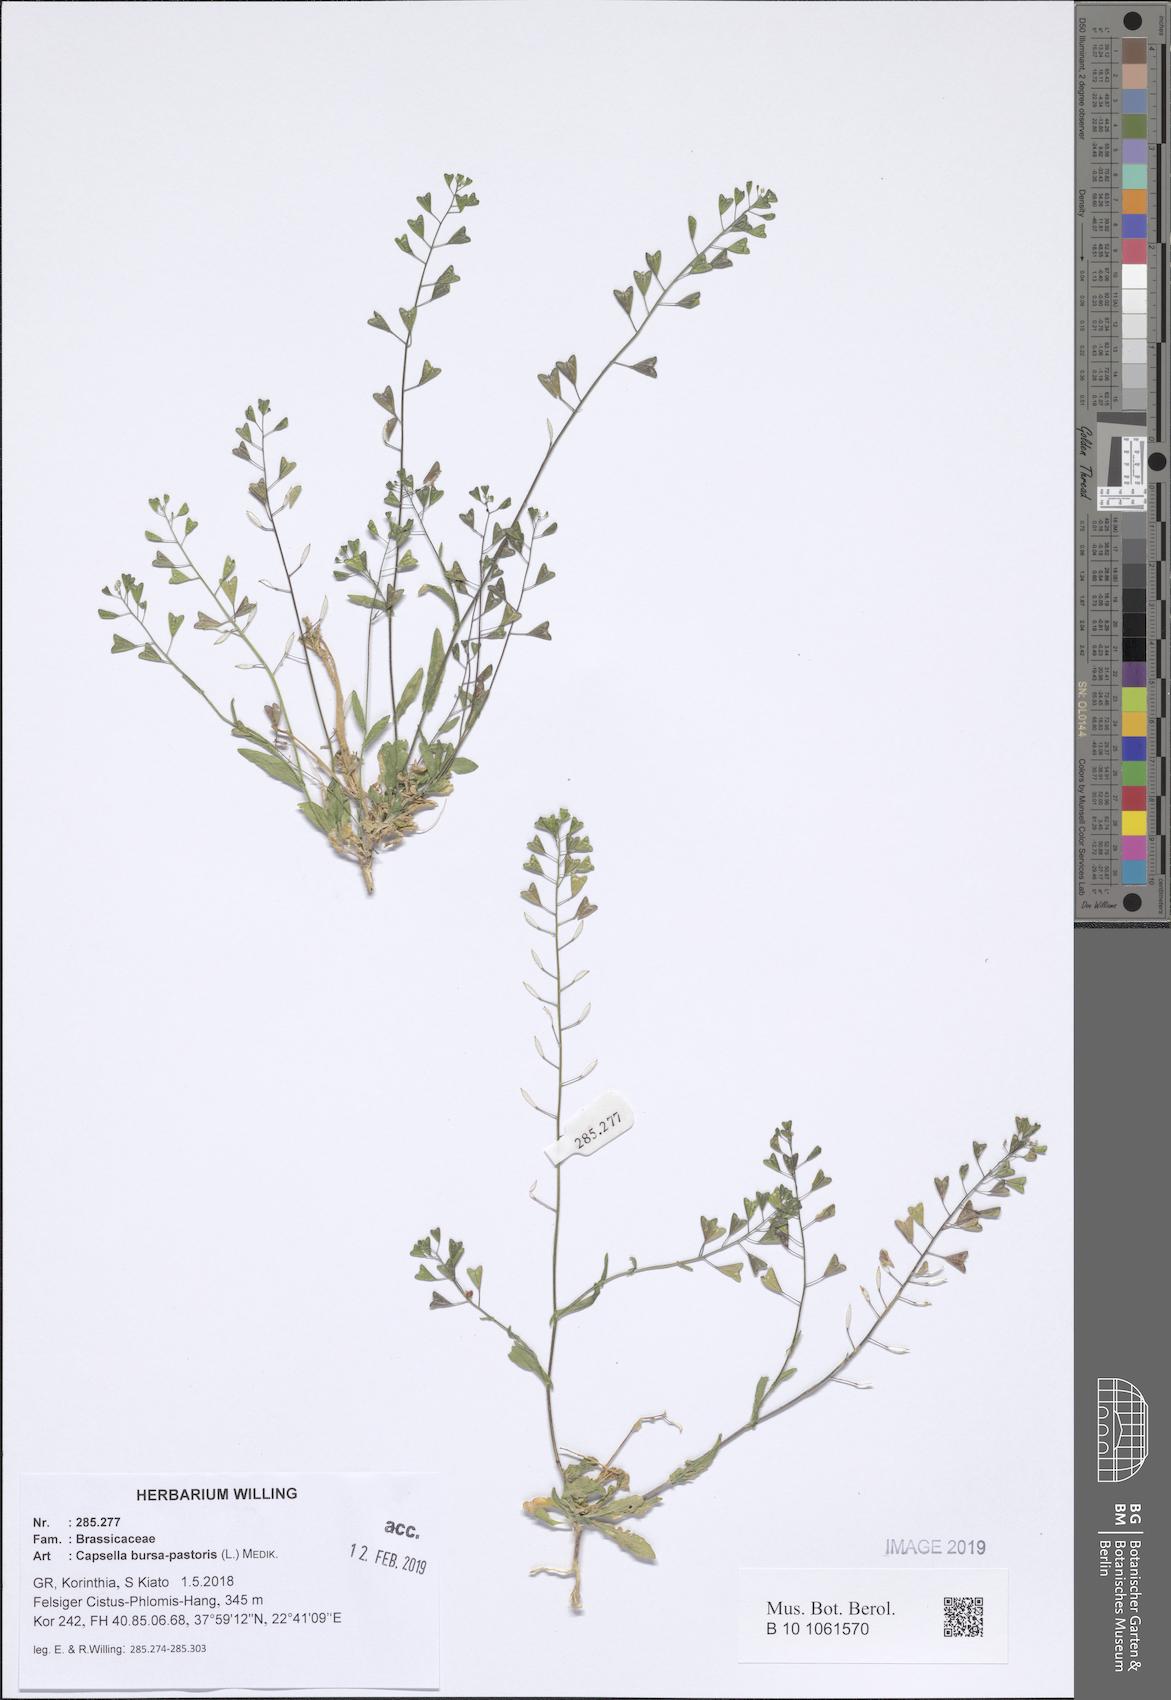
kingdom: Plantae
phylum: Tracheophyta
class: Magnoliopsida
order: Brassicales
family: Brassicaceae
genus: Capsella
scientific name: Capsella bursa-pastoris
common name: Shepherd's purse
